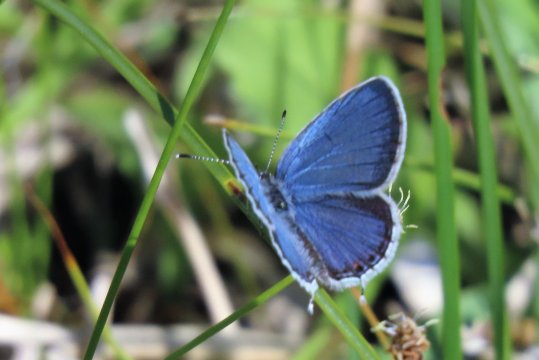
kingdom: Animalia
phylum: Arthropoda
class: Insecta
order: Lepidoptera
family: Lycaenidae
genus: Elkalyce
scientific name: Elkalyce comyntas
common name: Eastern Tailed-Blue
